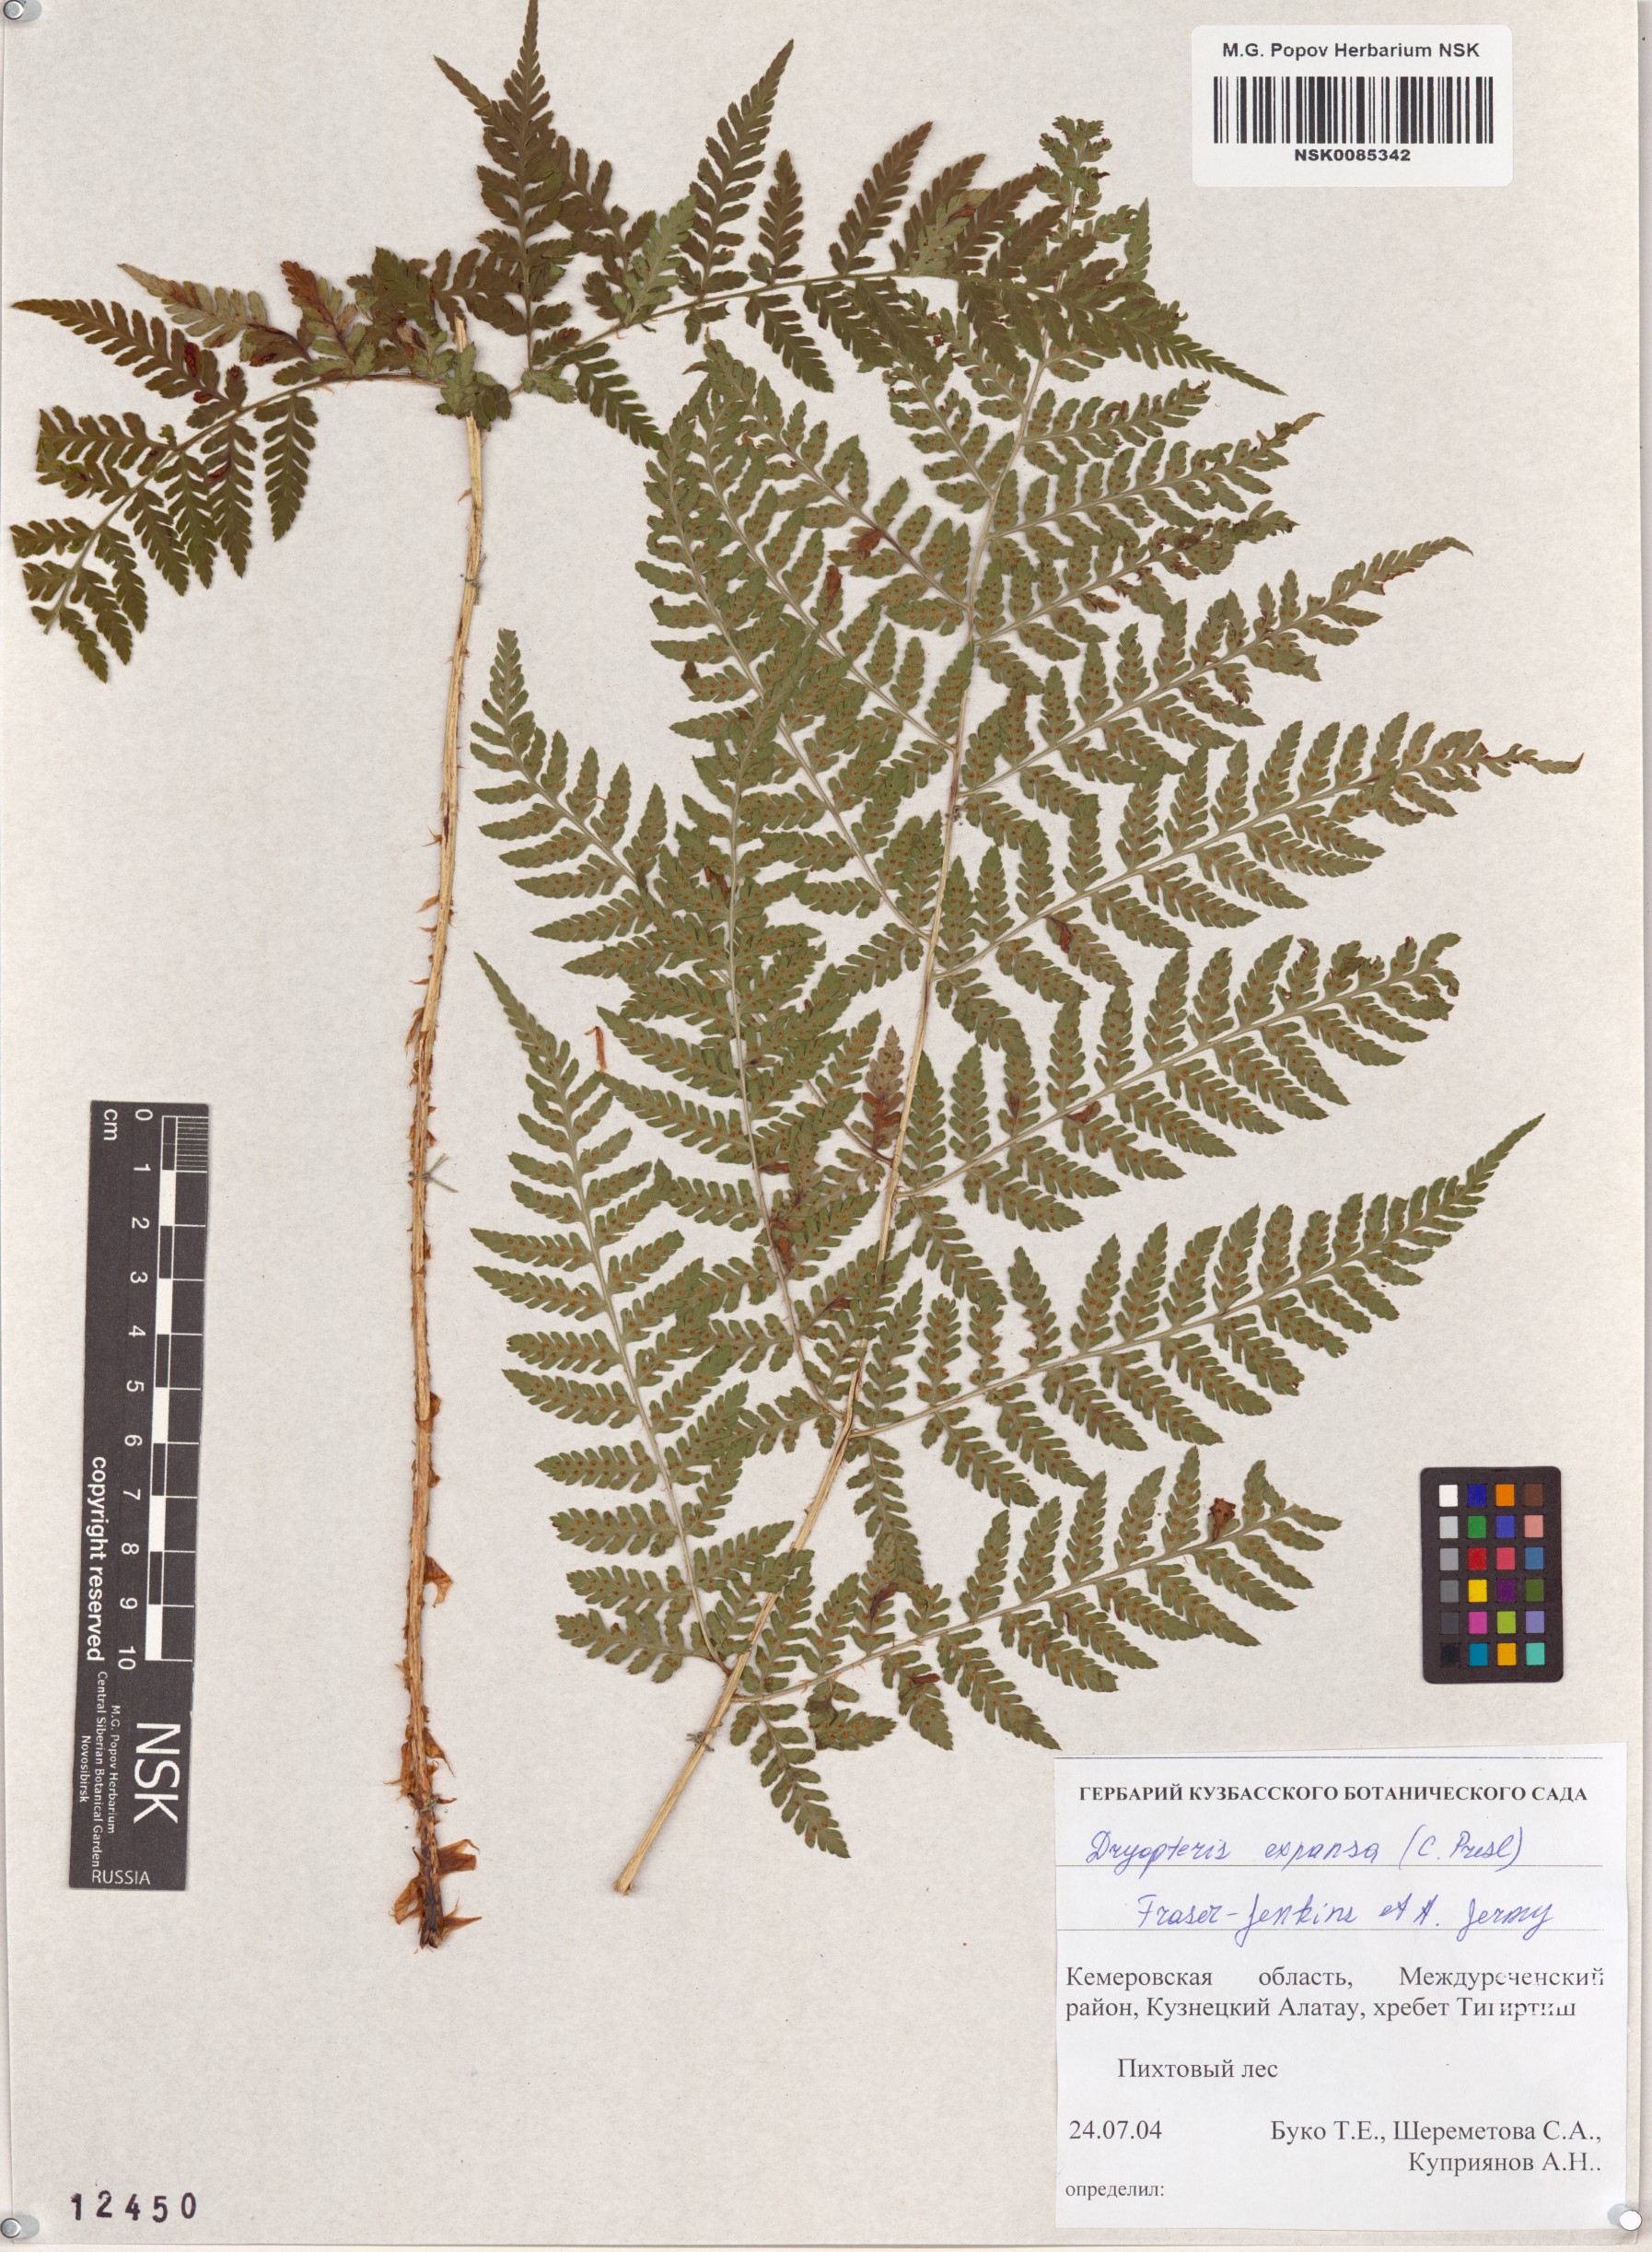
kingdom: Plantae
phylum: Tracheophyta
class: Polypodiopsida
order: Polypodiales
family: Dryopteridaceae
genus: Dryopteris
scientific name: Dryopteris expansa
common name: Northern buckler fern
